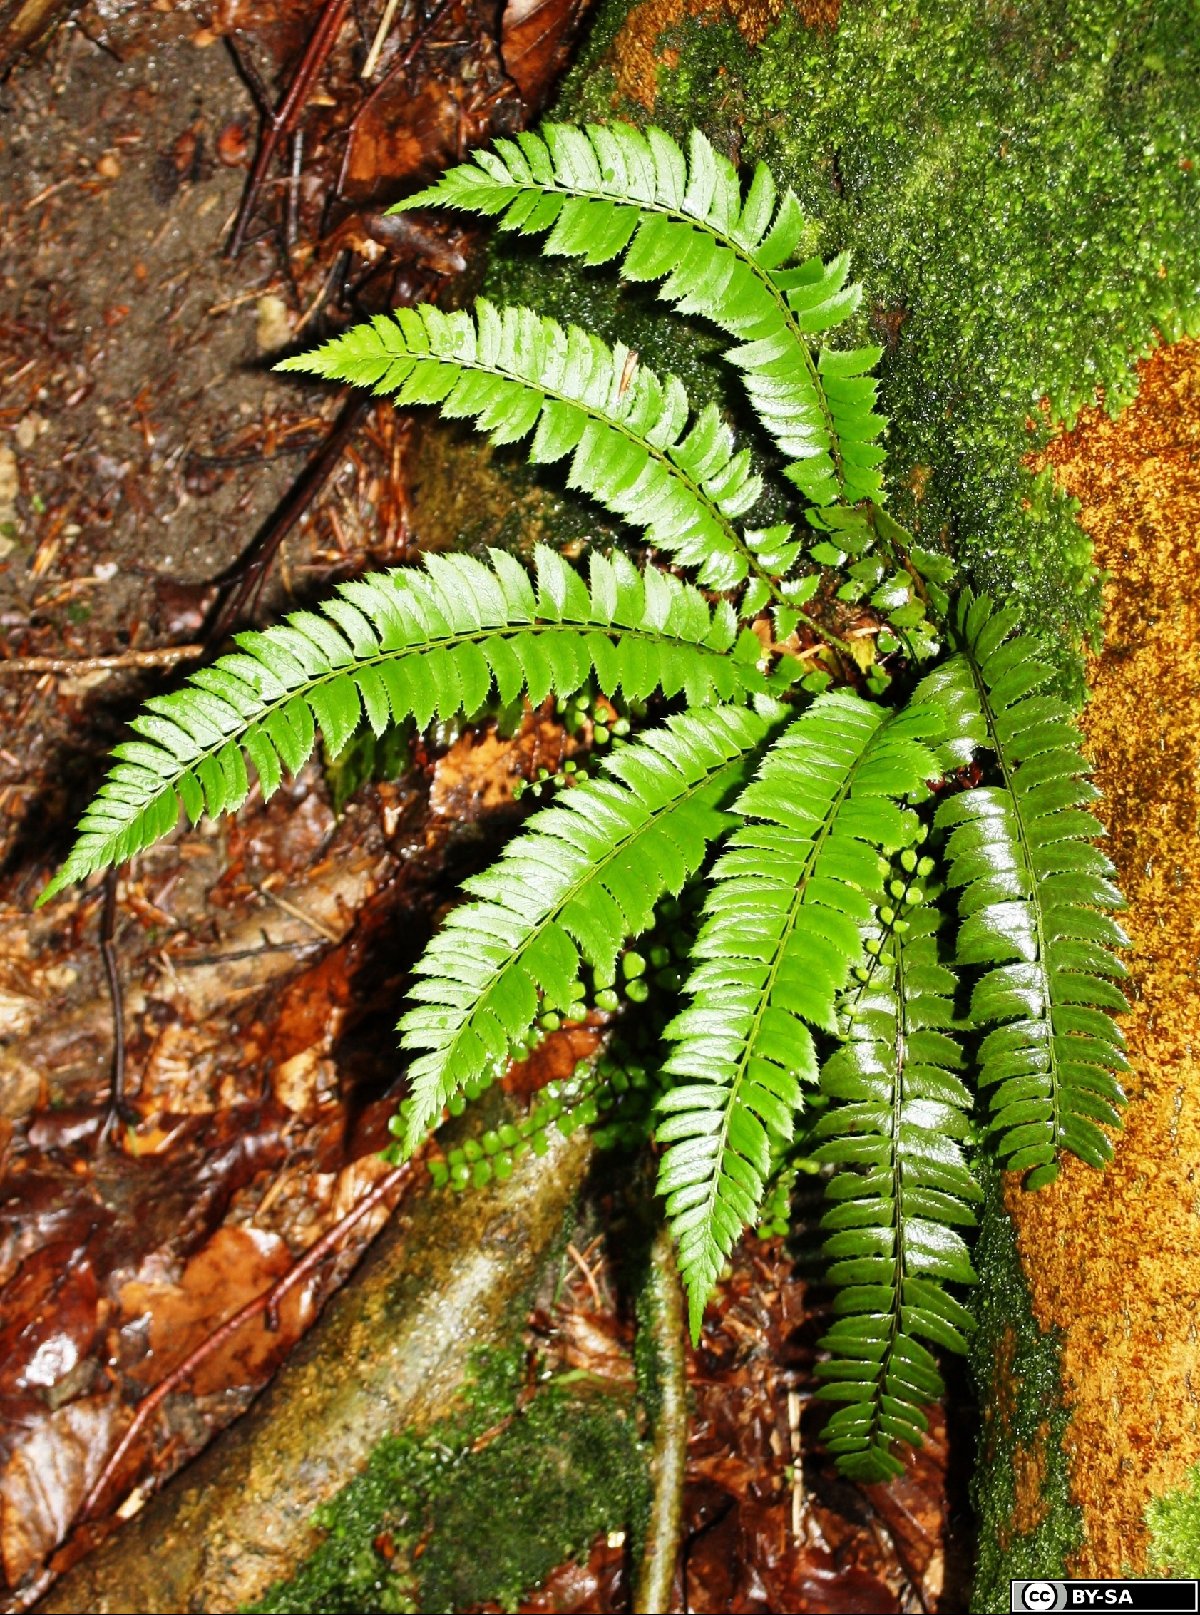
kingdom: Plantae
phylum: Tracheophyta
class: Polypodiopsida
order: Polypodiales
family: Dryopteridaceae
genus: Polystichum
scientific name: Polystichum lonchitis
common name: Holly fern
